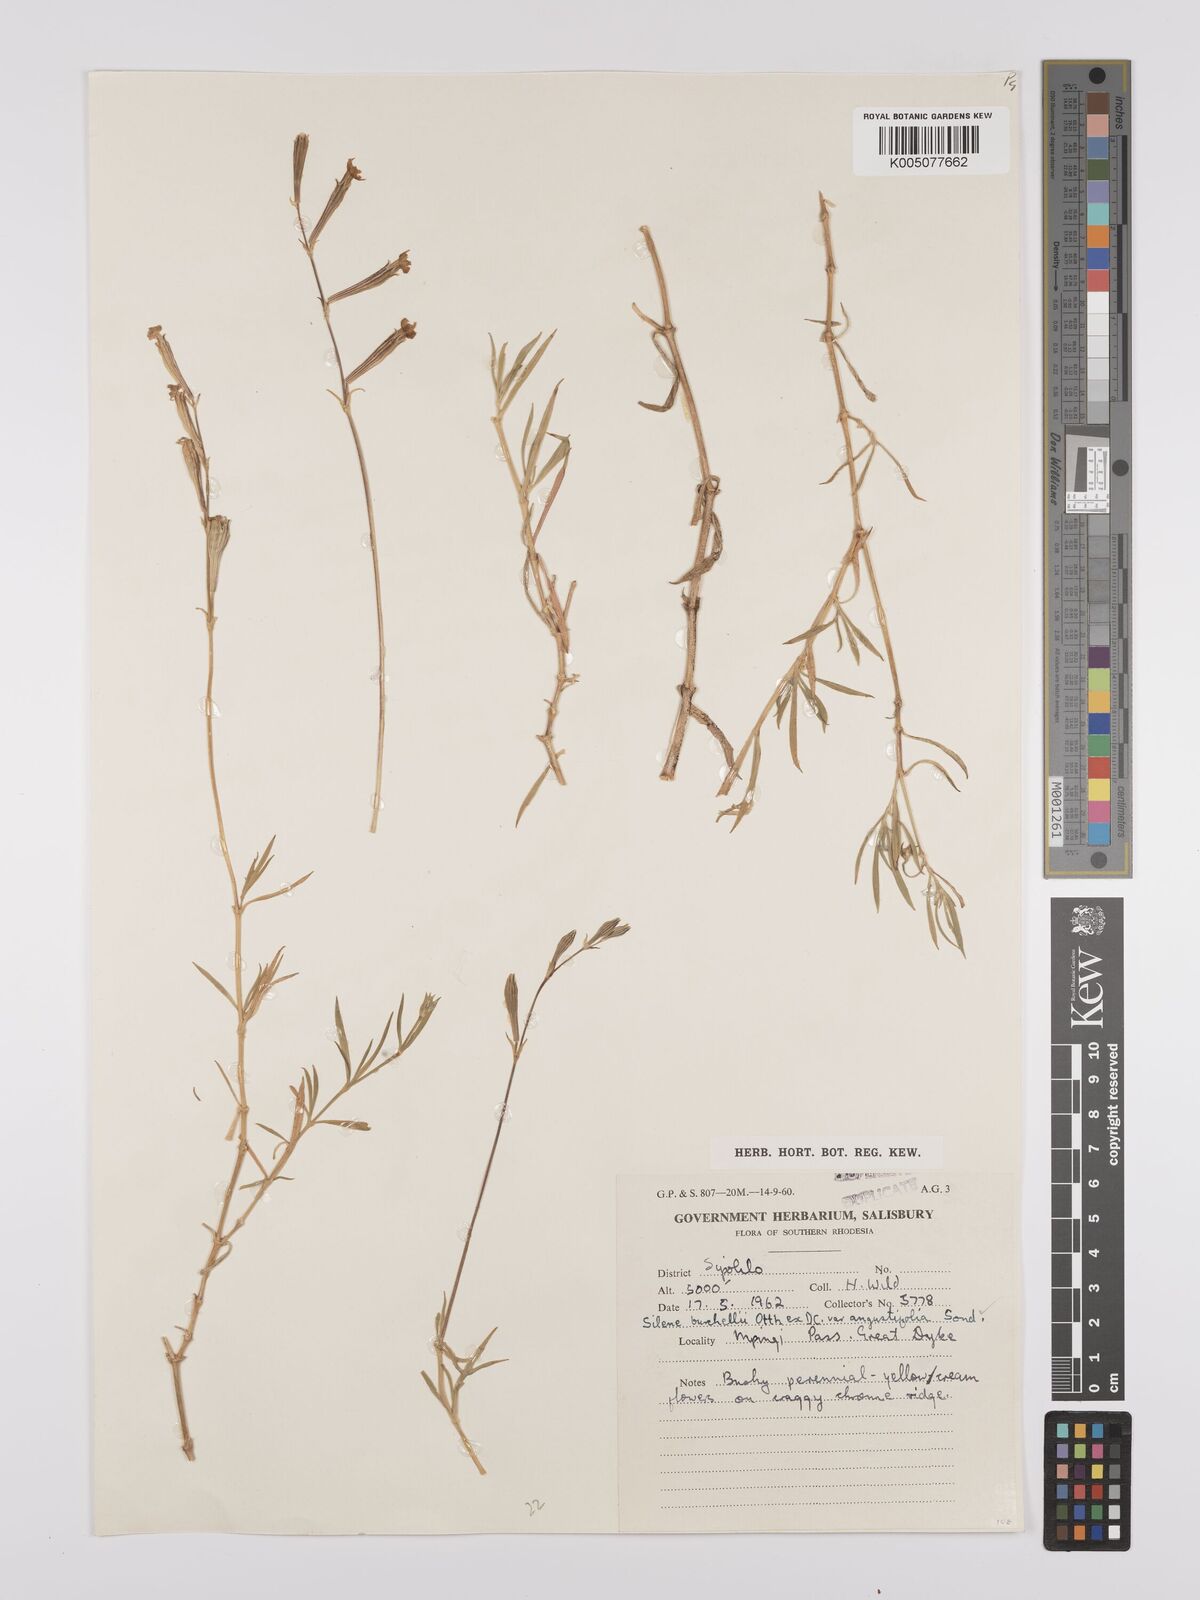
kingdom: Plantae
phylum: Tracheophyta
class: Magnoliopsida
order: Caryophyllales
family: Caryophyllaceae
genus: Silene
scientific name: Silene burchellii
